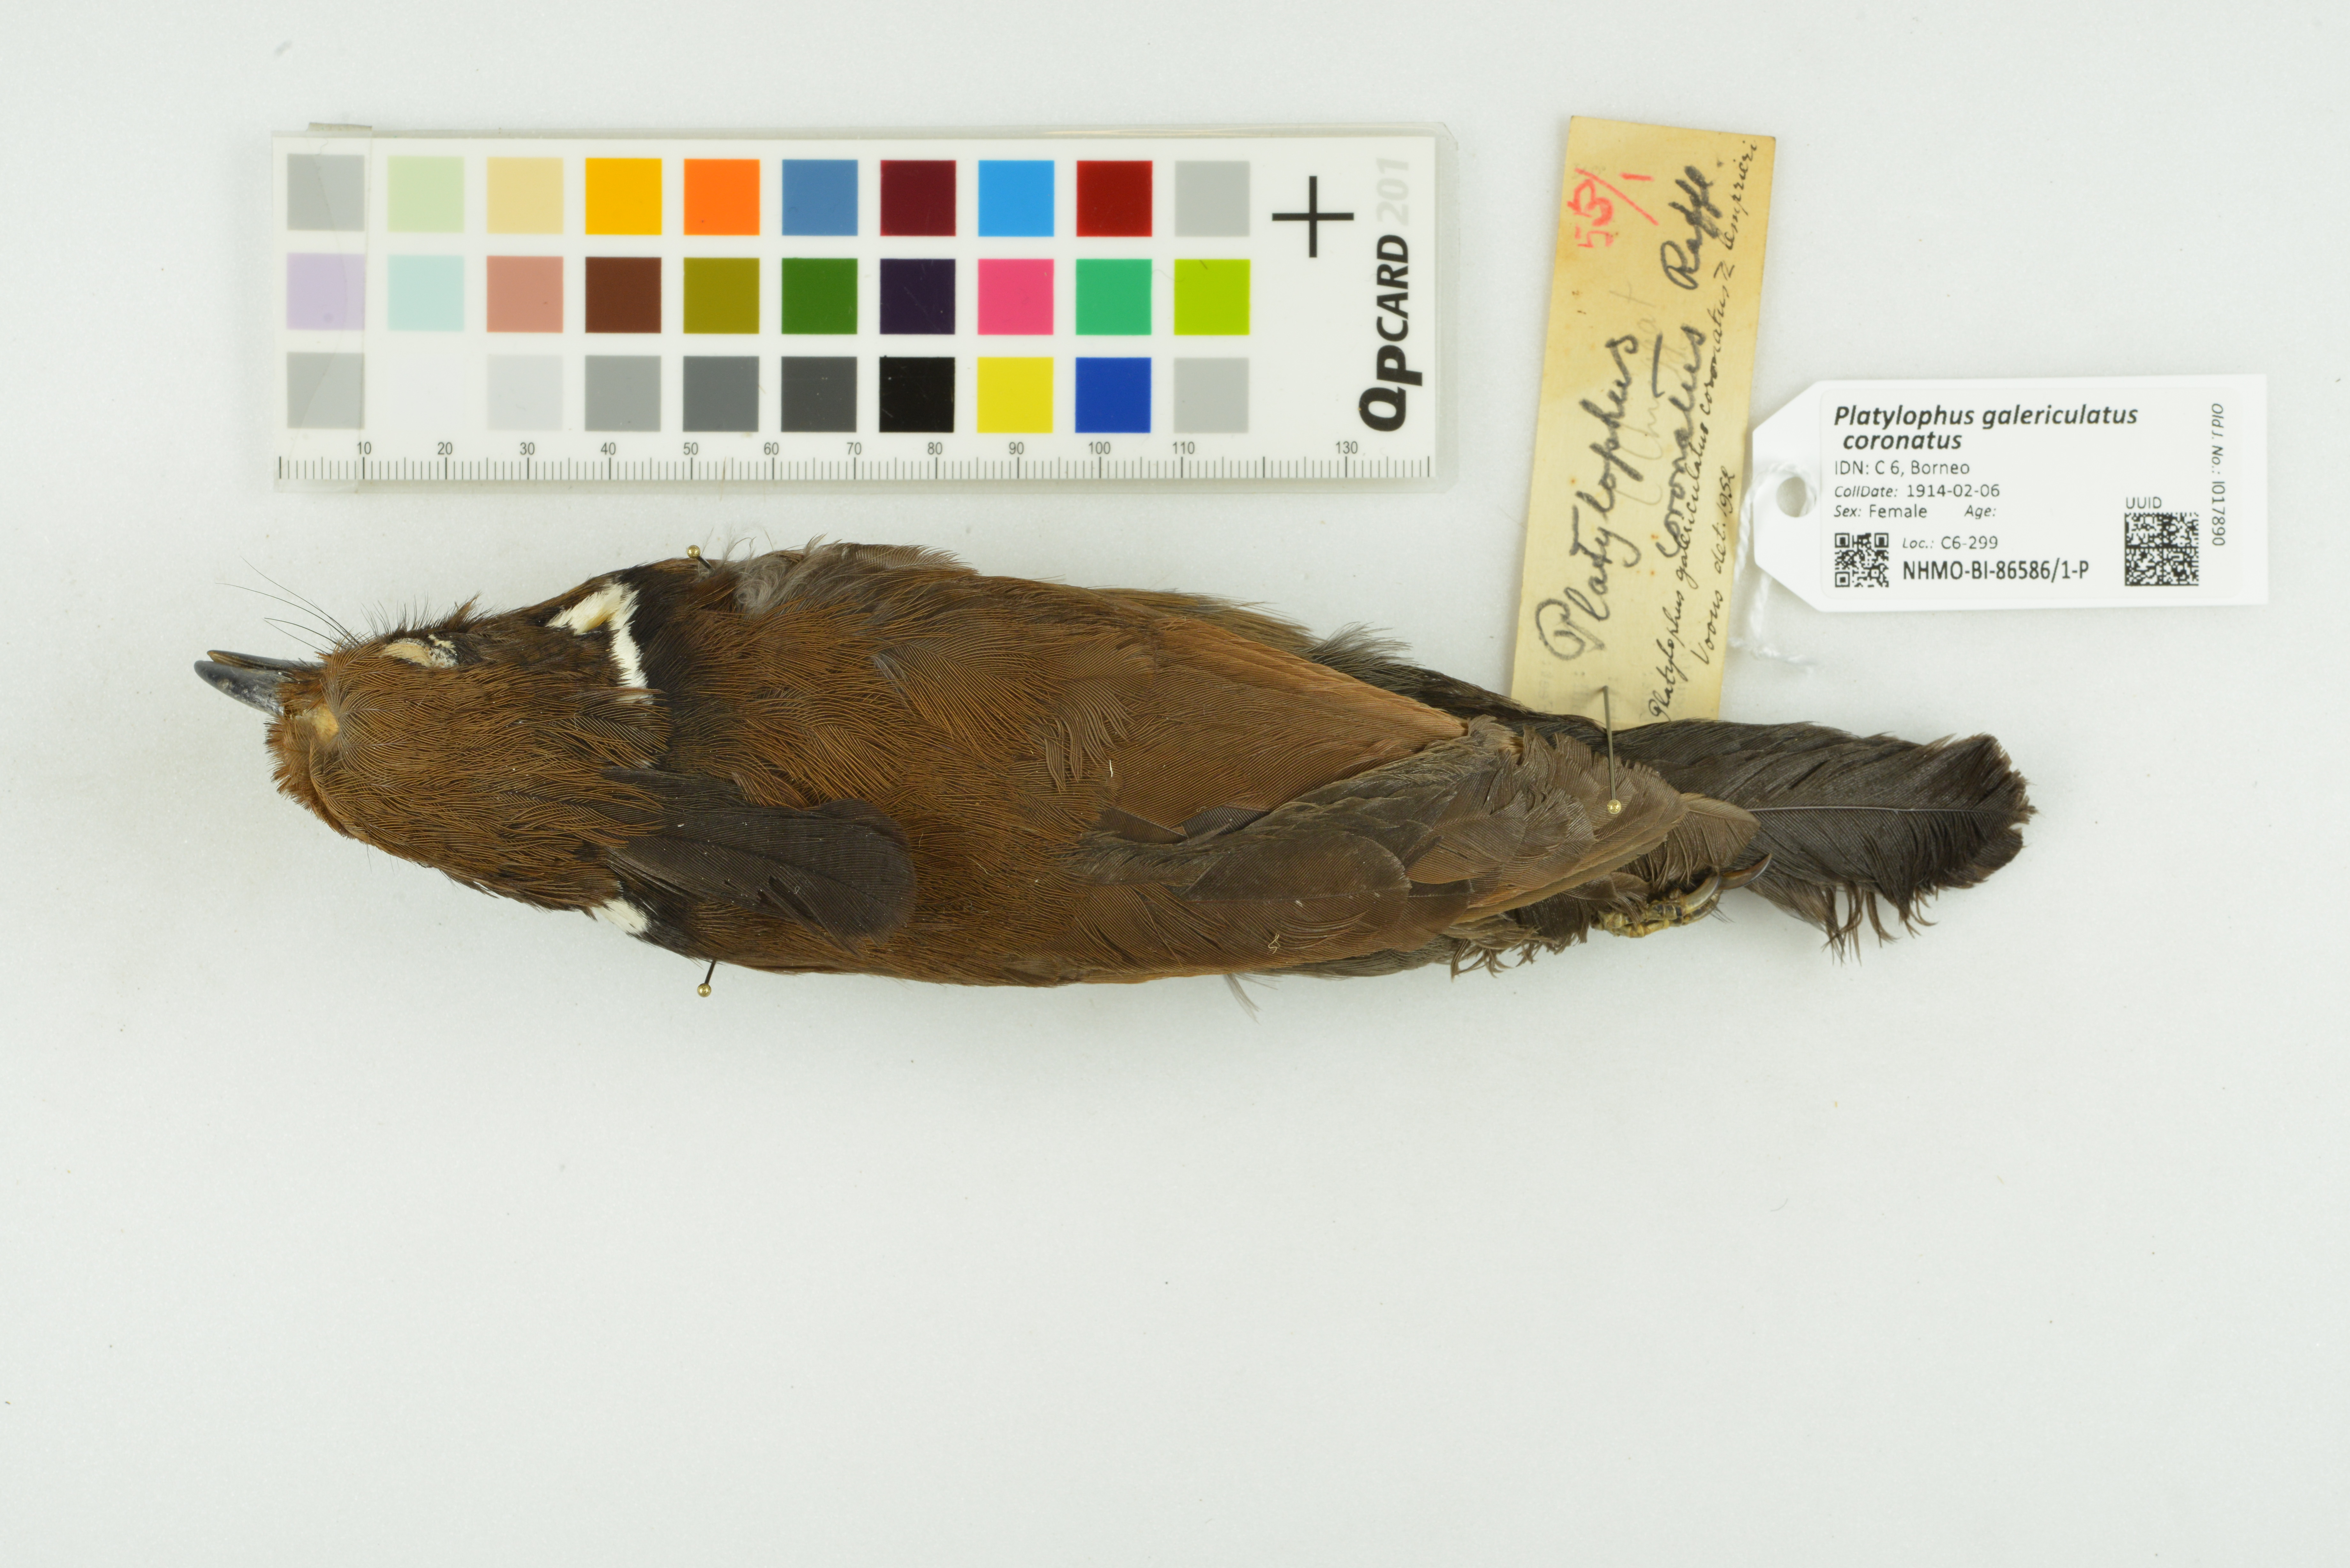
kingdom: Animalia
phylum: Chordata
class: Aves
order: Passeriformes
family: Corvidae
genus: Platylophus
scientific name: Platylophus galericulatus
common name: Crested jay
